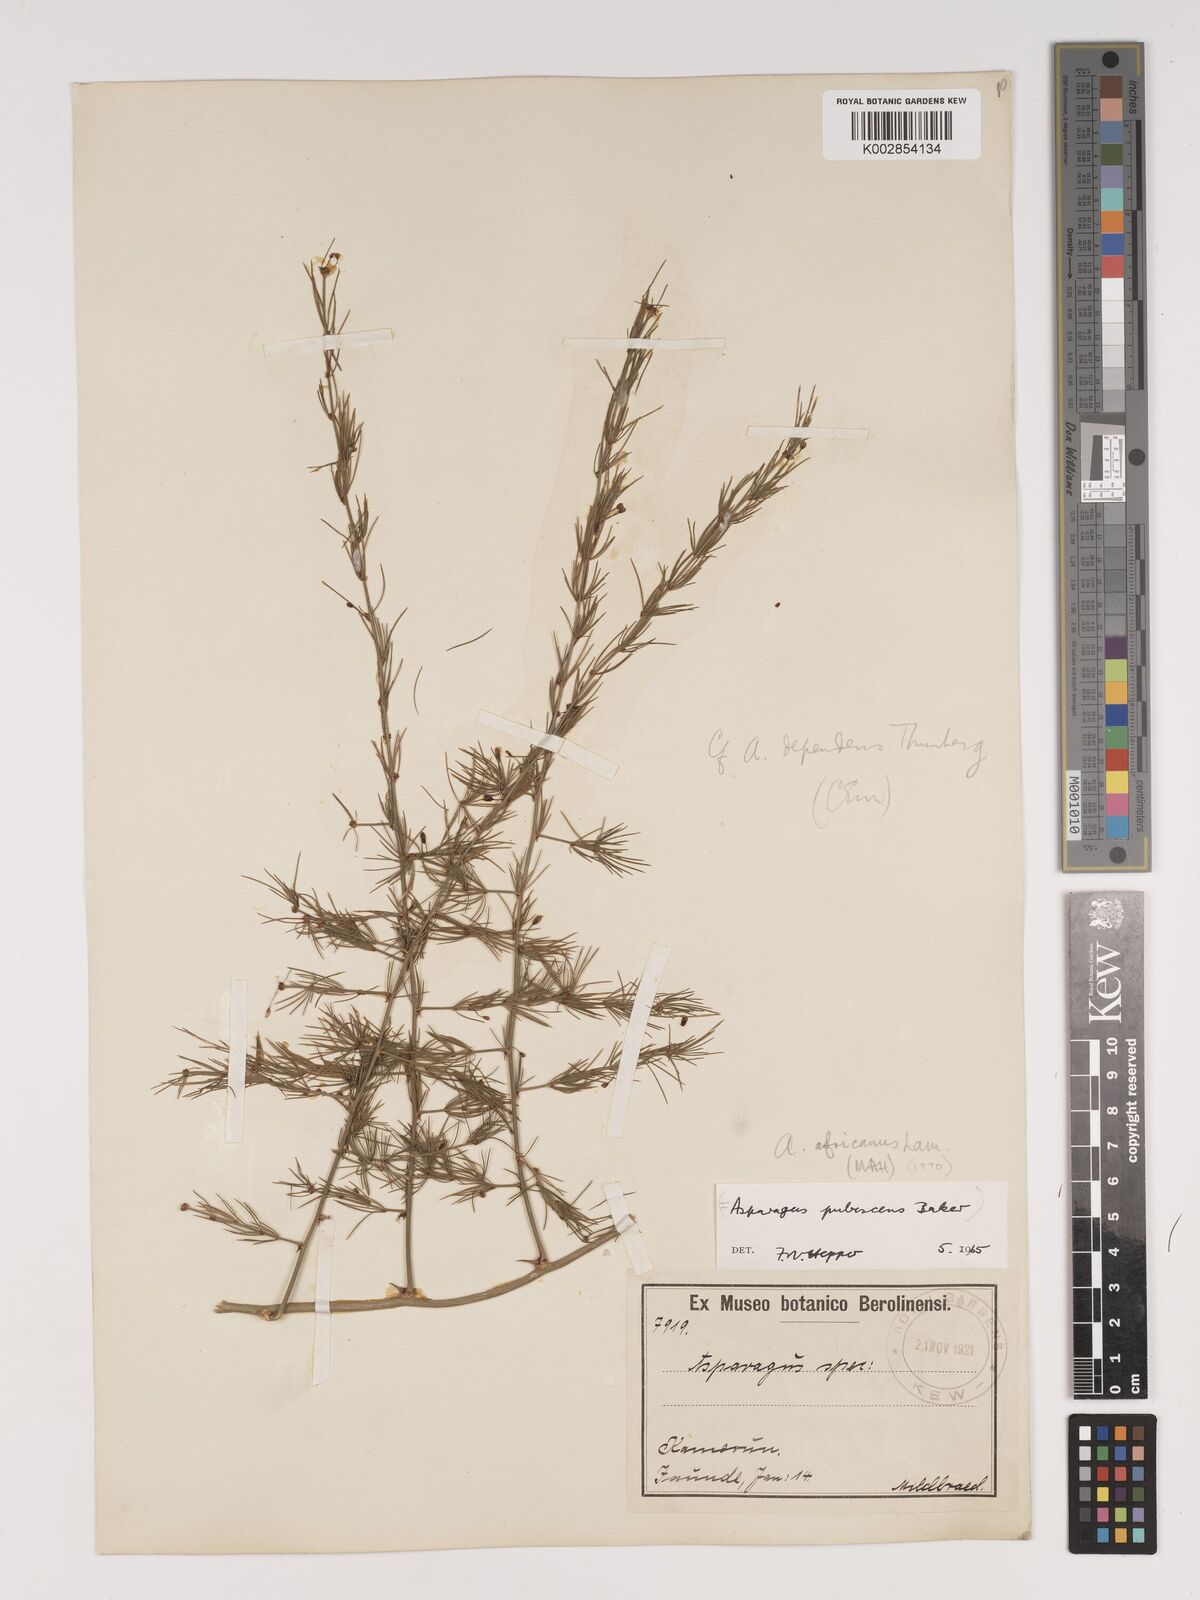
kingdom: Plantae
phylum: Tracheophyta
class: Liliopsida
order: Asparagales
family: Asparagaceae
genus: Asparagus
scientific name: Asparagus africanus
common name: Asparagus-fern
